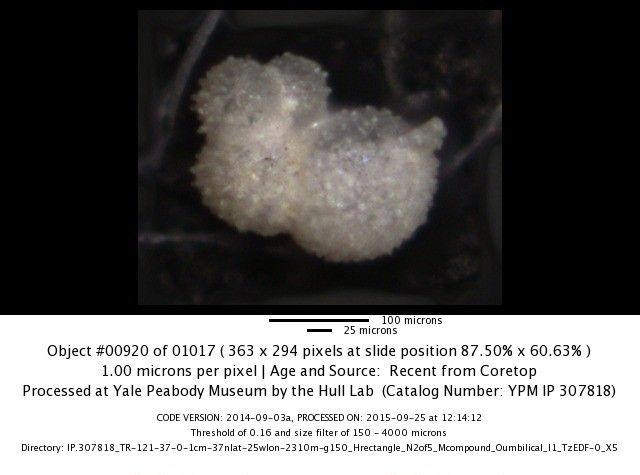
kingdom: Chromista
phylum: Foraminifera
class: Globothalamea
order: Rotaliida
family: Globigerinidae
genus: Globigerinella
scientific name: Globigerinella siphonifera
